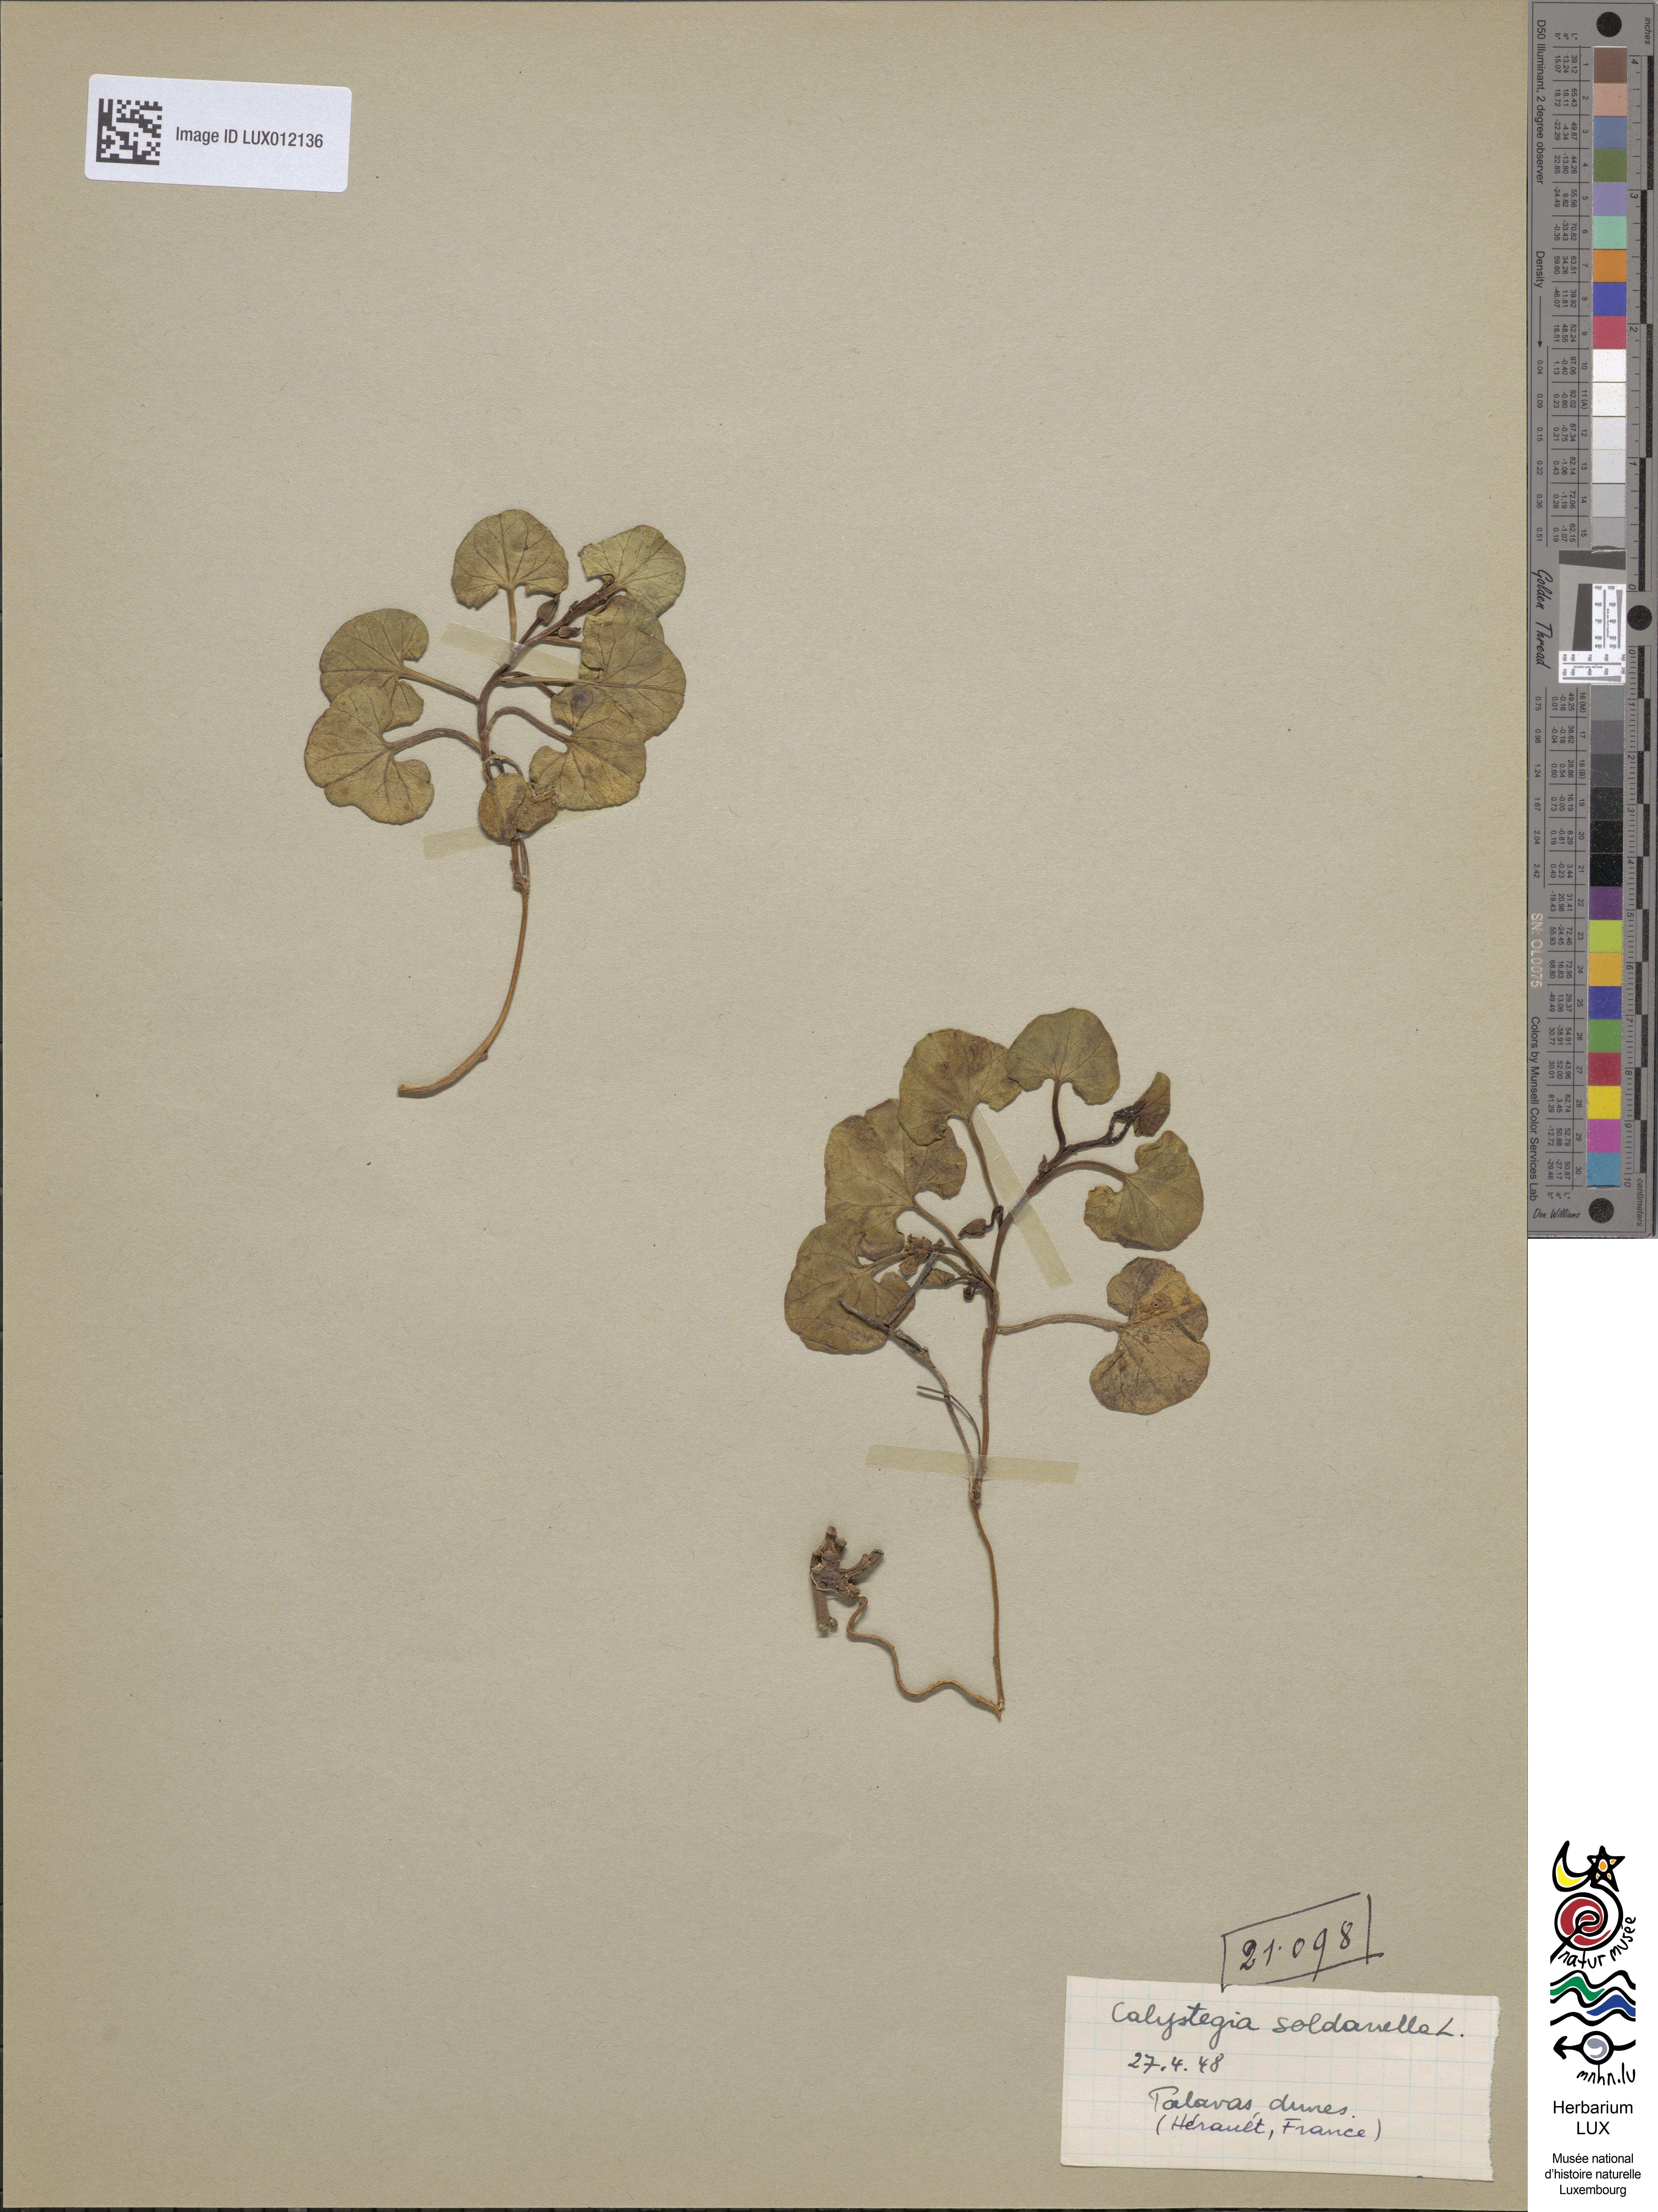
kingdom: Plantae
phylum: Tracheophyta
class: Magnoliopsida
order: Solanales
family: Convolvulaceae
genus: Calystegia
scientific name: Calystegia soldanella
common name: Sea bindweed
